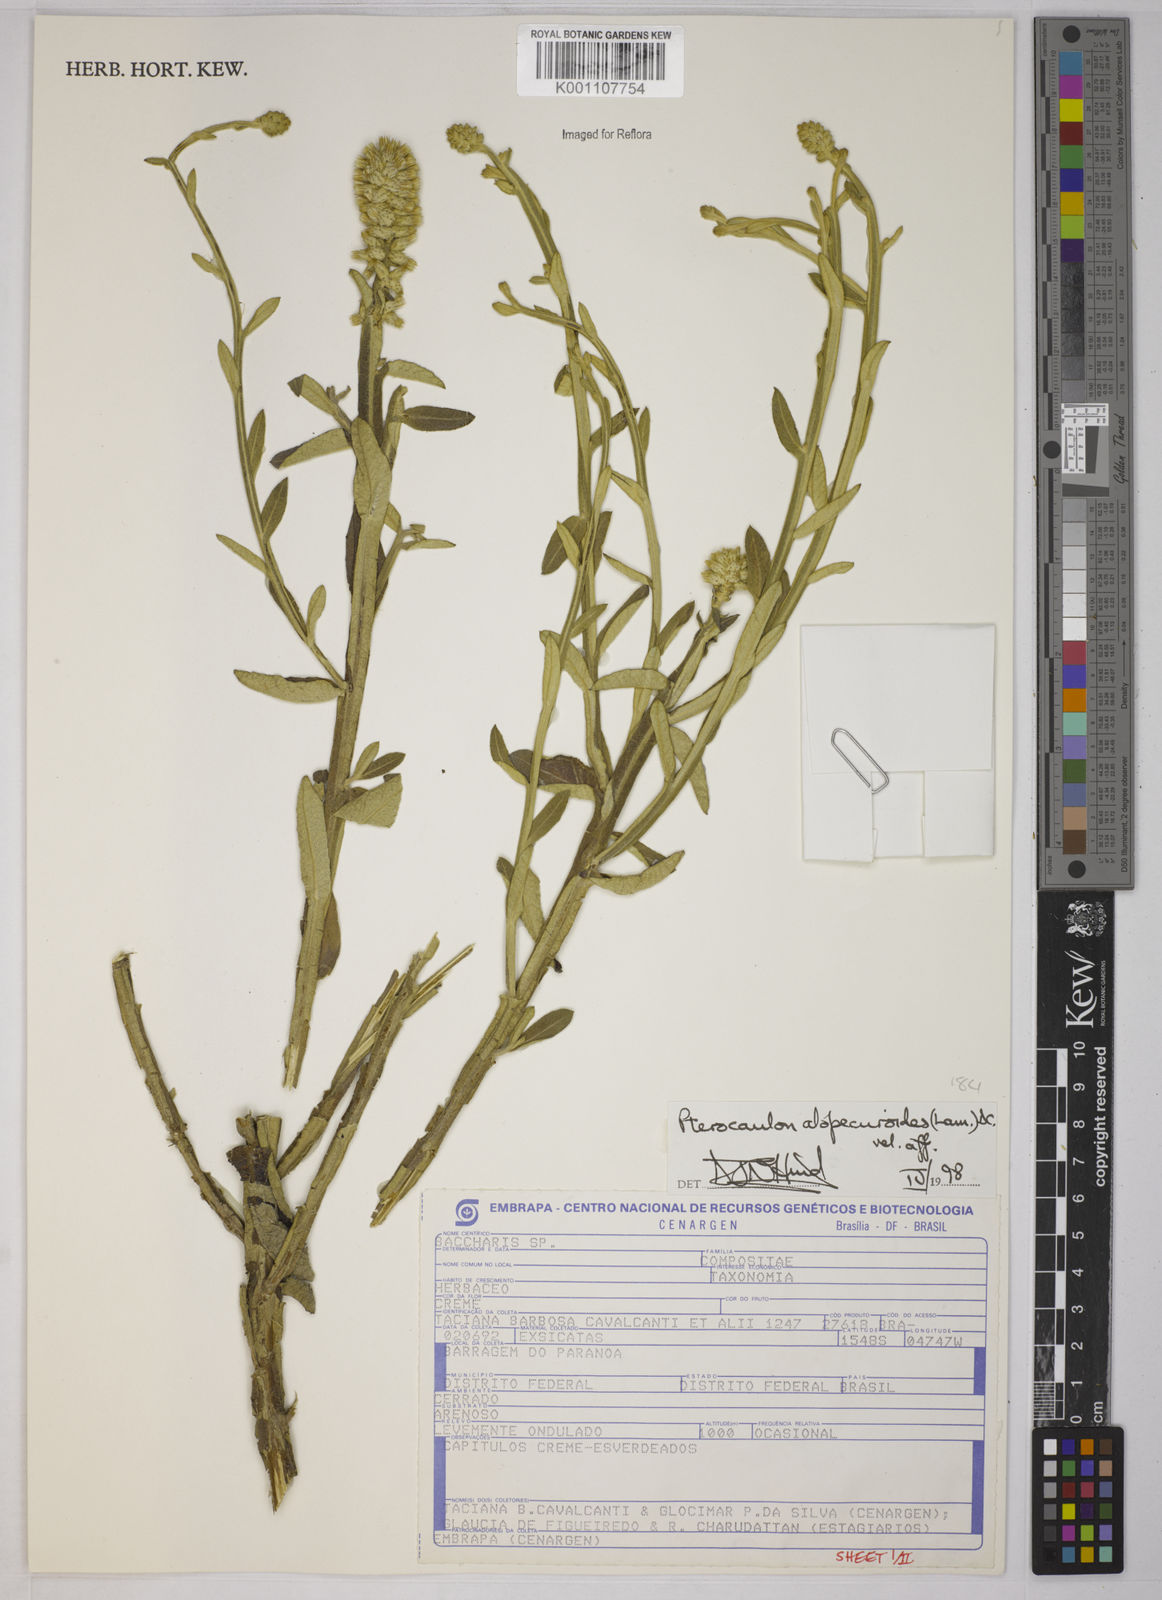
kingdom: Plantae
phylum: Tracheophyta
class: Magnoliopsida
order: Asterales
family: Asteraceae
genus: Pterocaulon
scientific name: Pterocaulon alopecuroides
